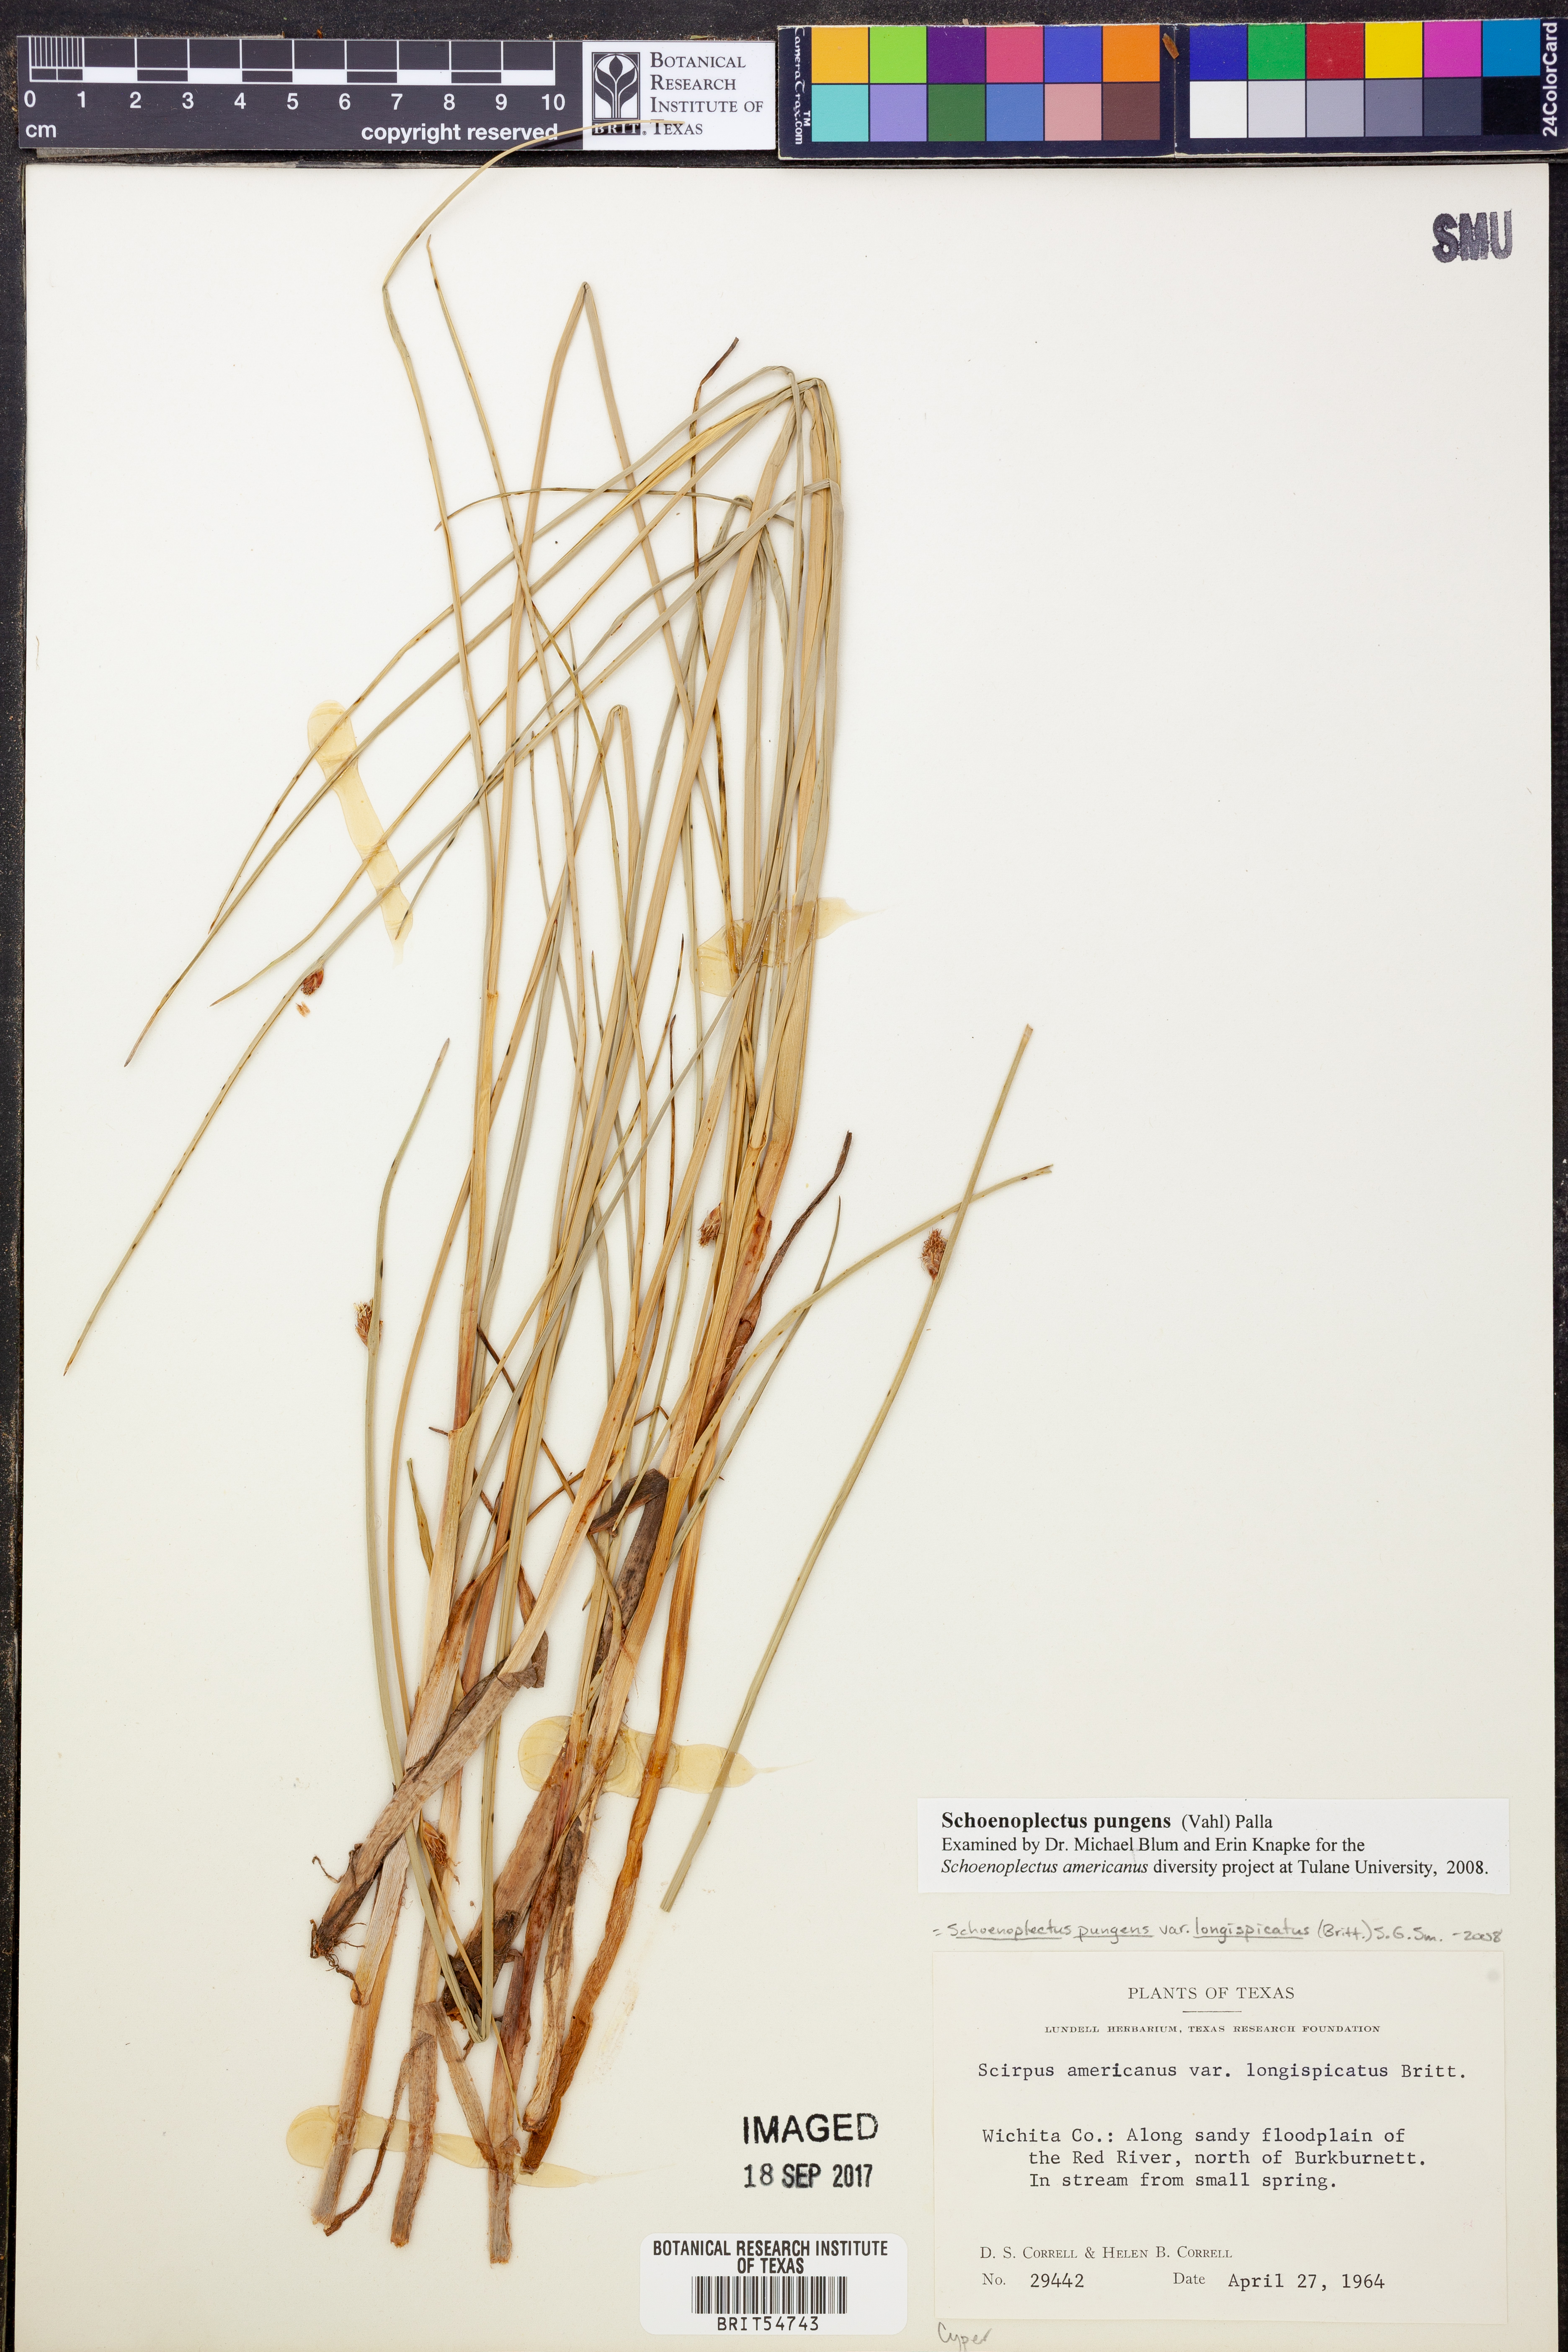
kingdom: Plantae
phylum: Tracheophyta
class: Liliopsida
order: Poales
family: Cyperaceae
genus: Schoenoplectus
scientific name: Schoenoplectus pungens
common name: Sharp club-rush
